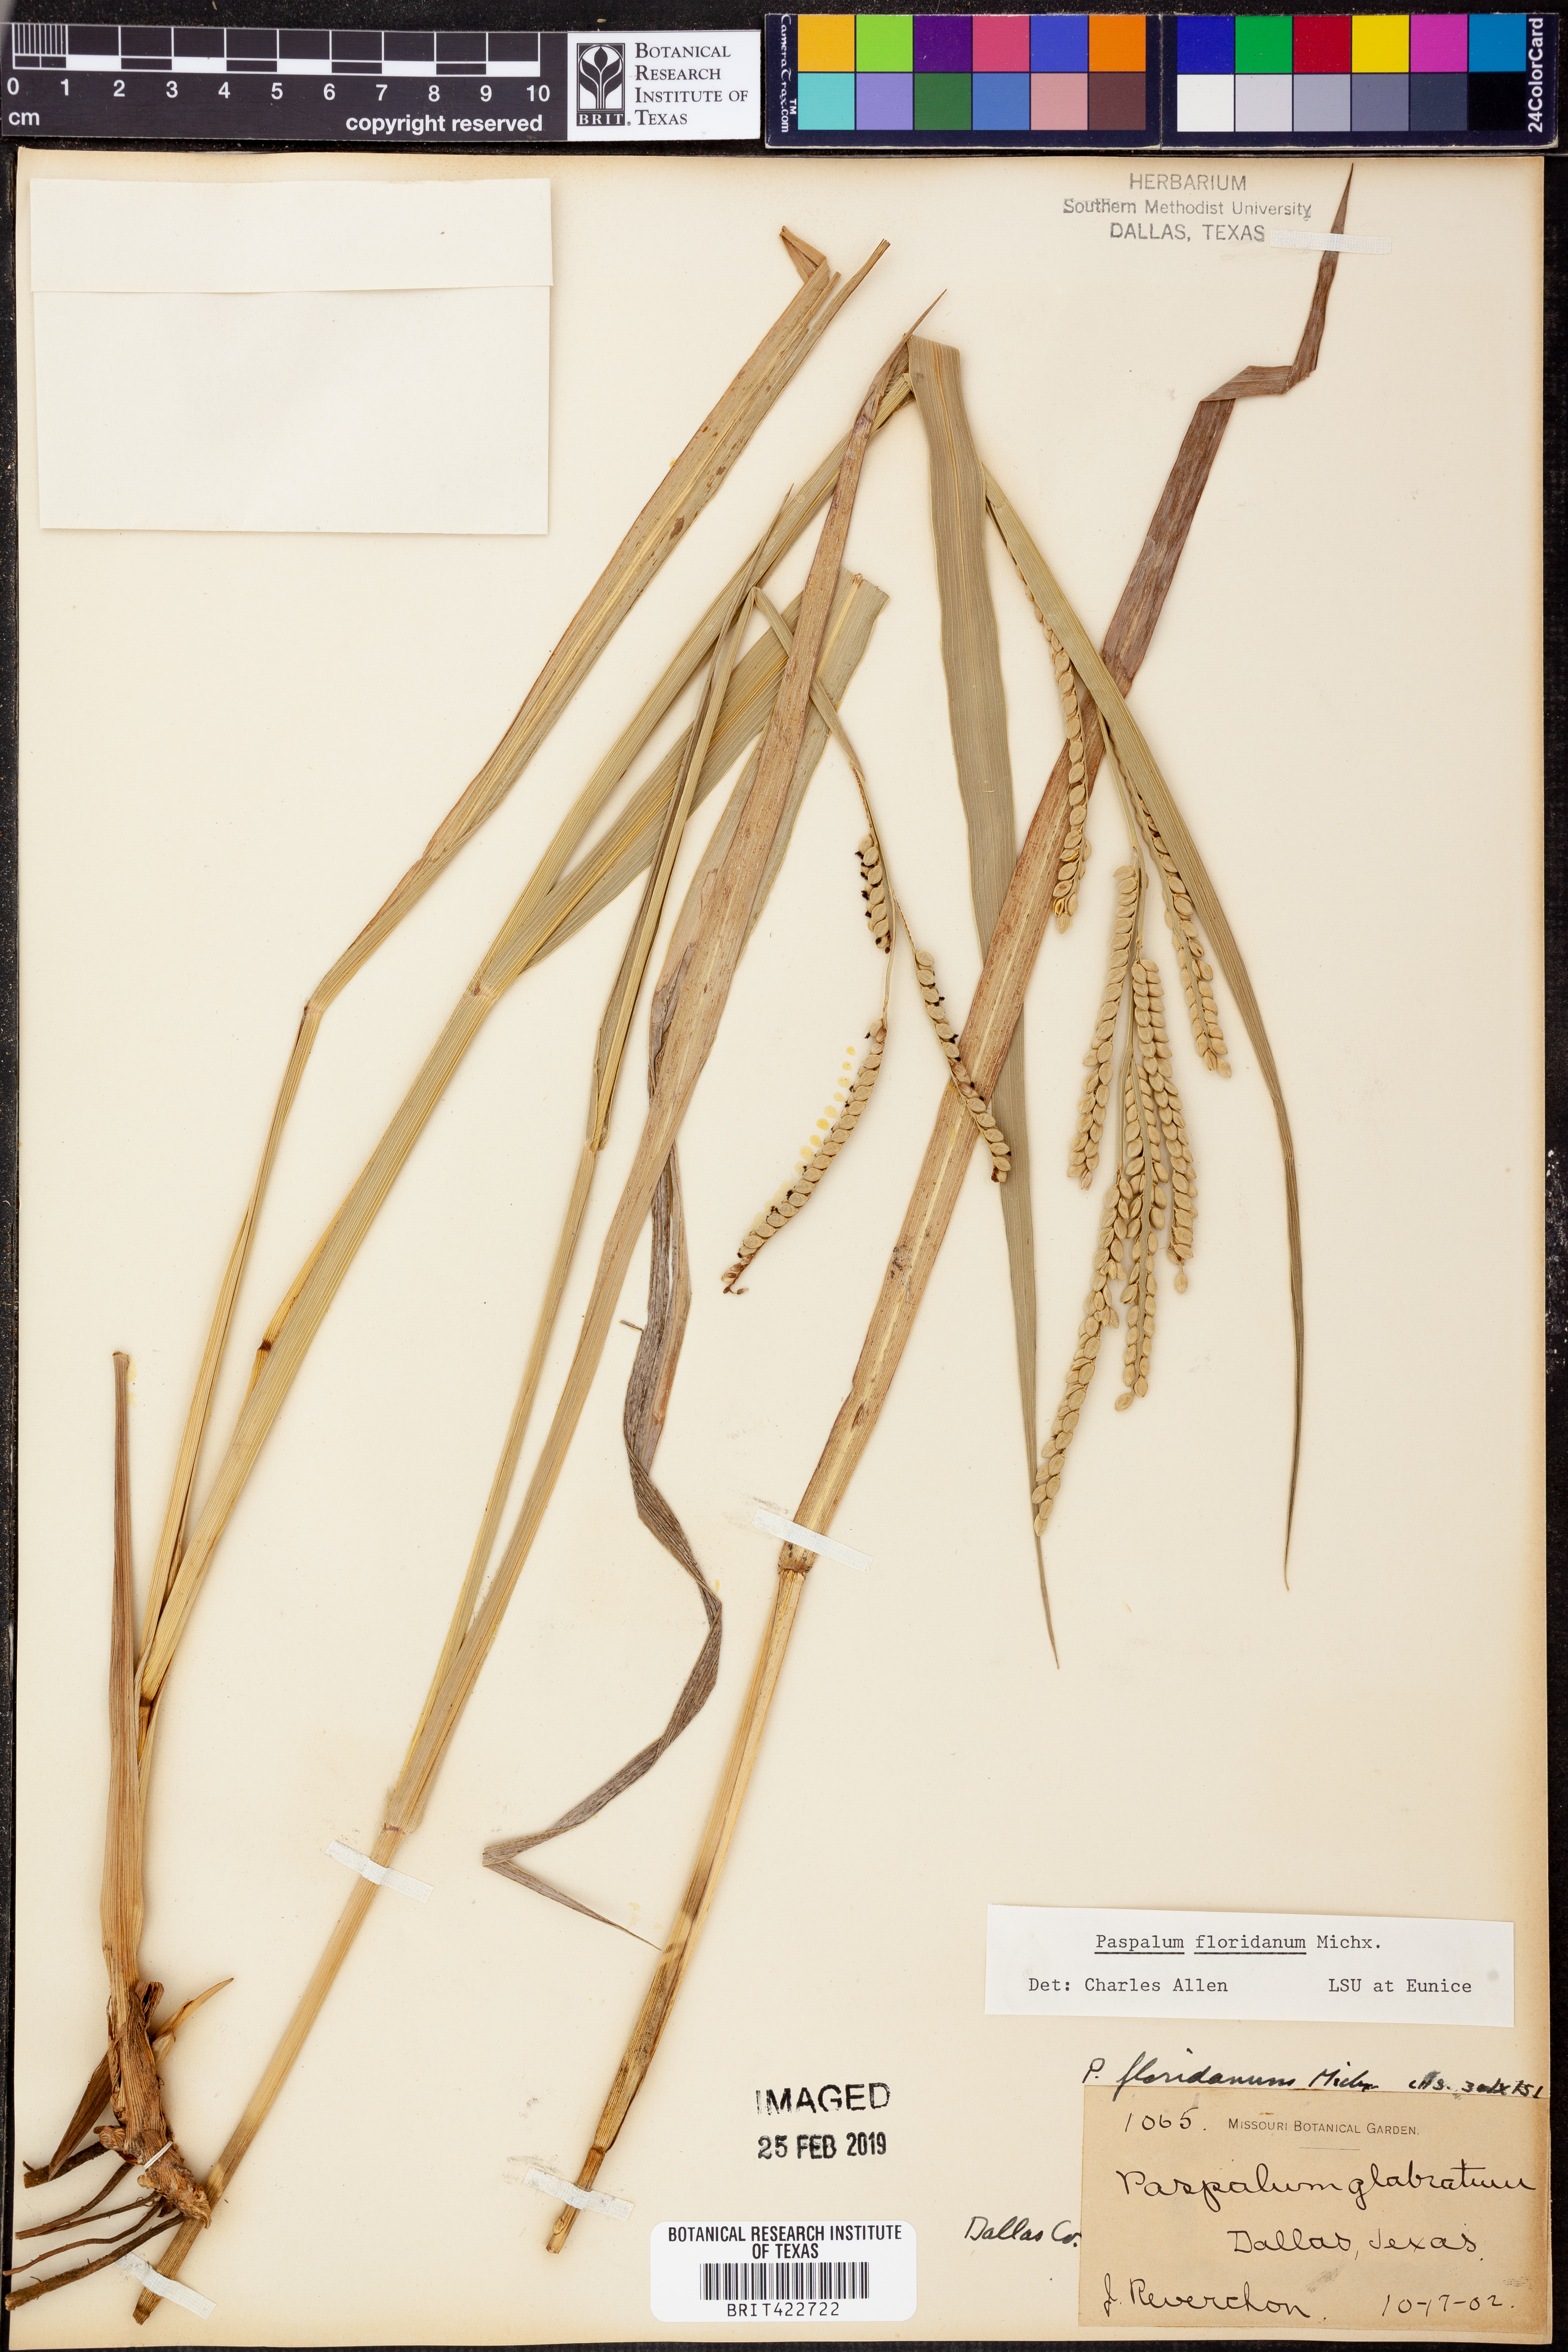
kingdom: Plantae
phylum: Tracheophyta
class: Liliopsida
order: Poales
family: Poaceae
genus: Paspalum
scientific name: Paspalum floridanum
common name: Florida paspalum
